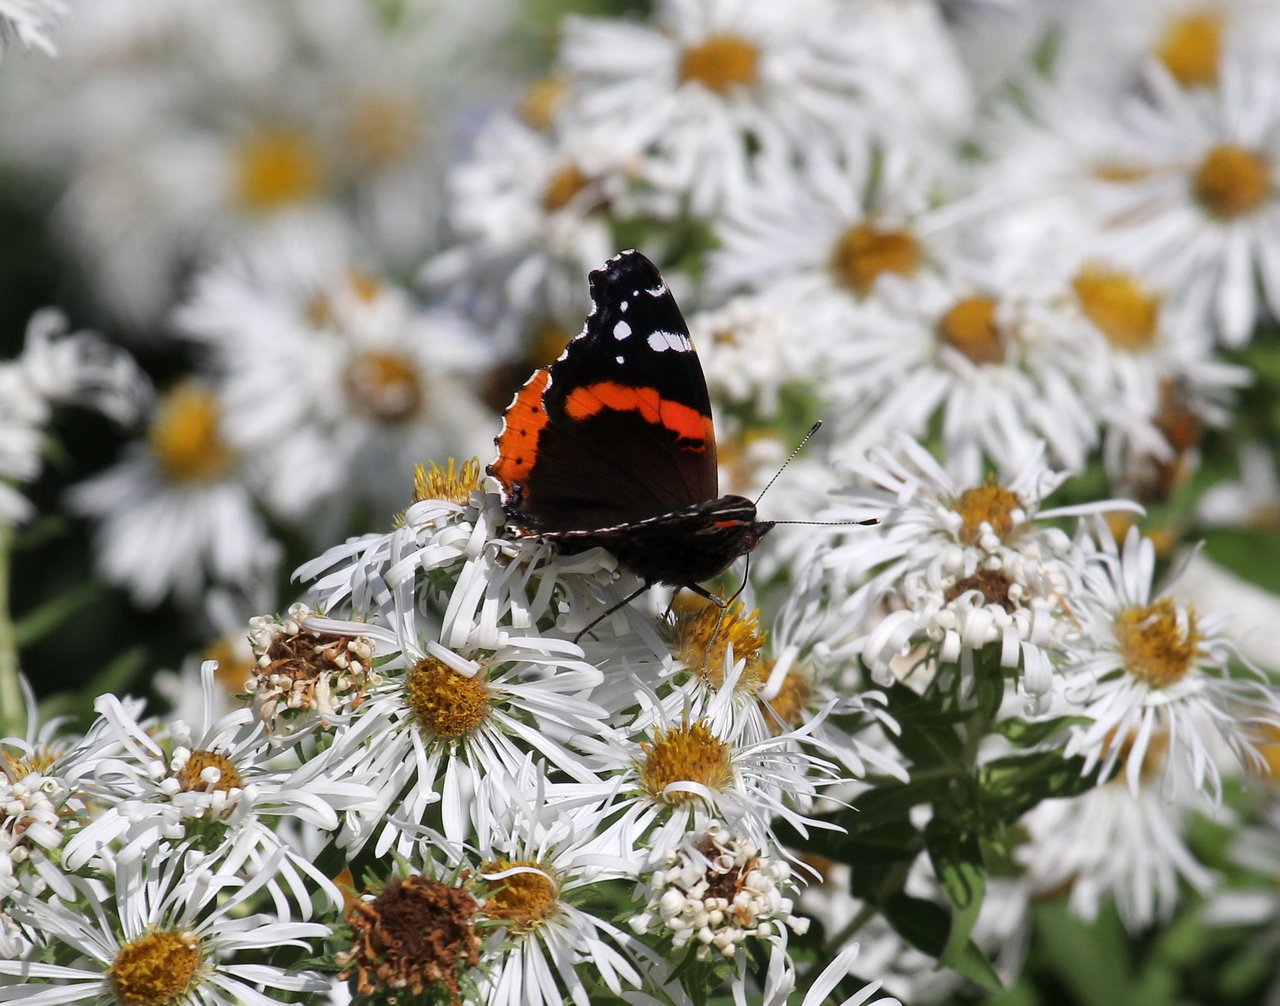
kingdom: Animalia
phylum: Arthropoda
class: Insecta
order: Lepidoptera
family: Nymphalidae
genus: Vanessa
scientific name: Vanessa atalanta
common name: Red Admiral
